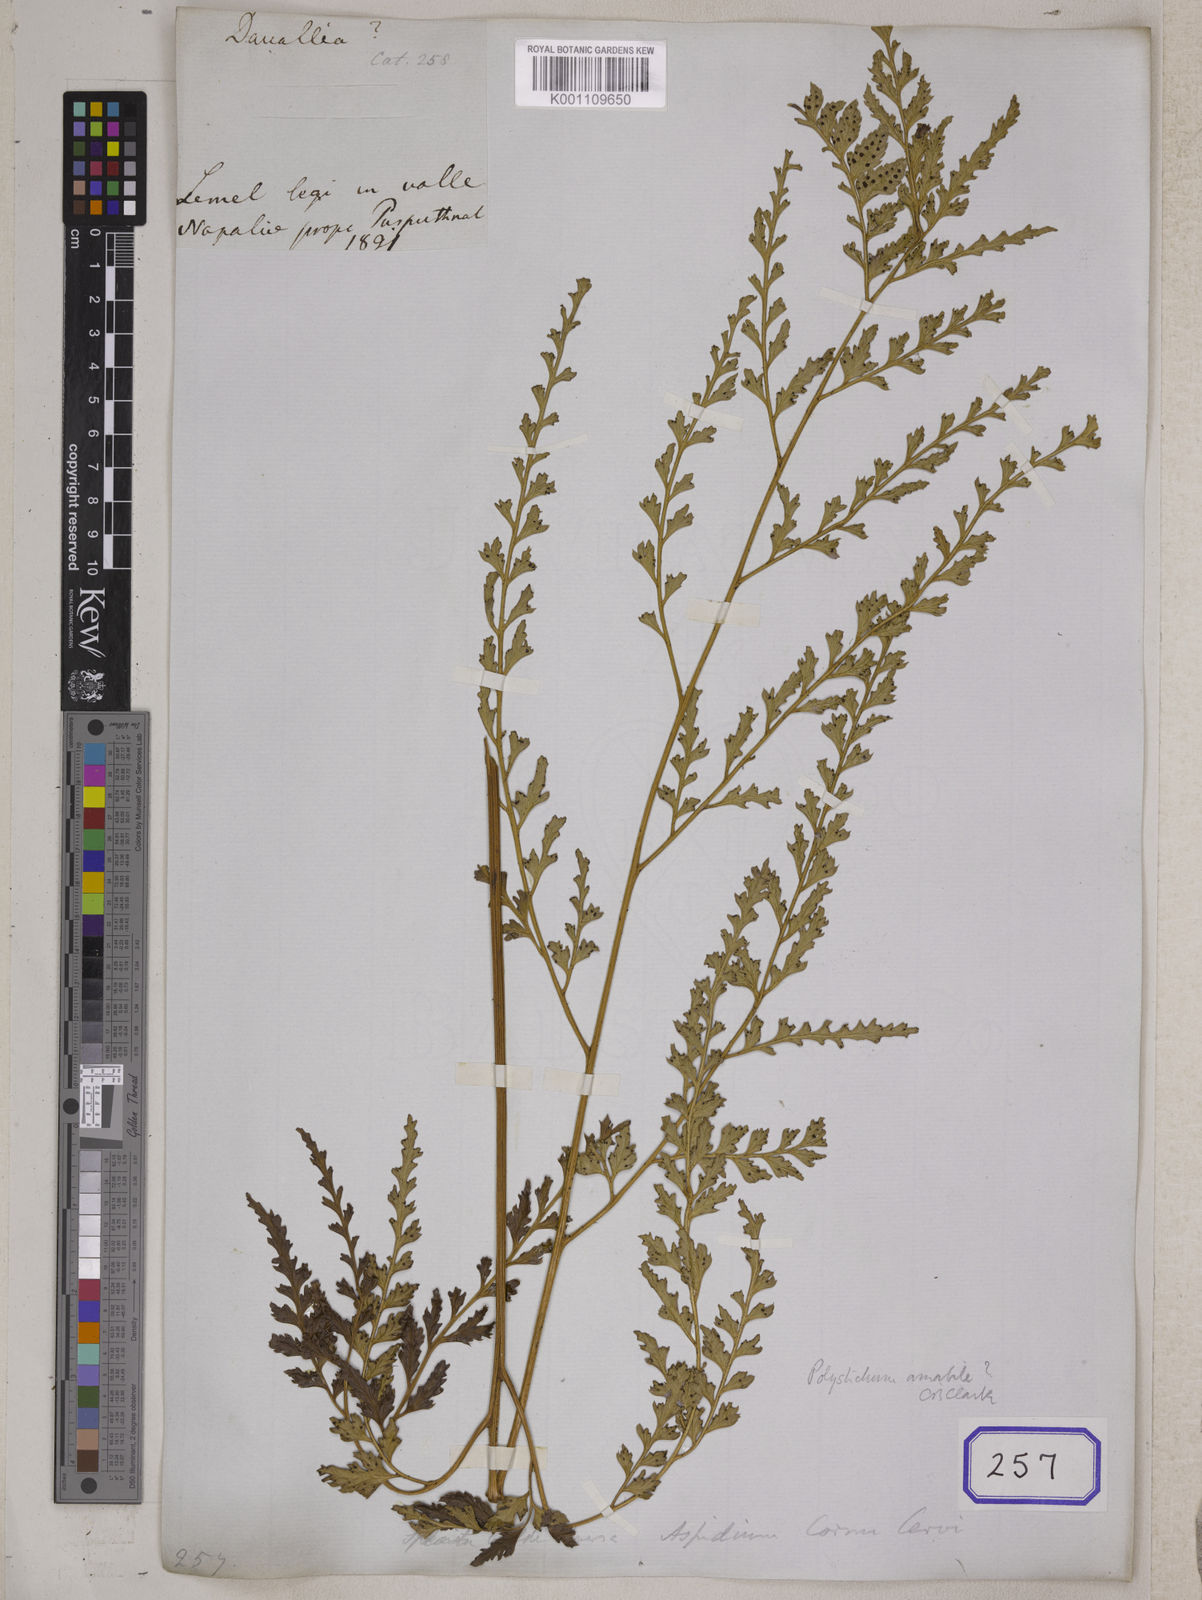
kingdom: Plantae
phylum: Tracheophyta
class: Polypodiopsida
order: Polypodiales
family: Dennstaedtiaceae
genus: Microlepia
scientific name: Microlepia rhomboidea
